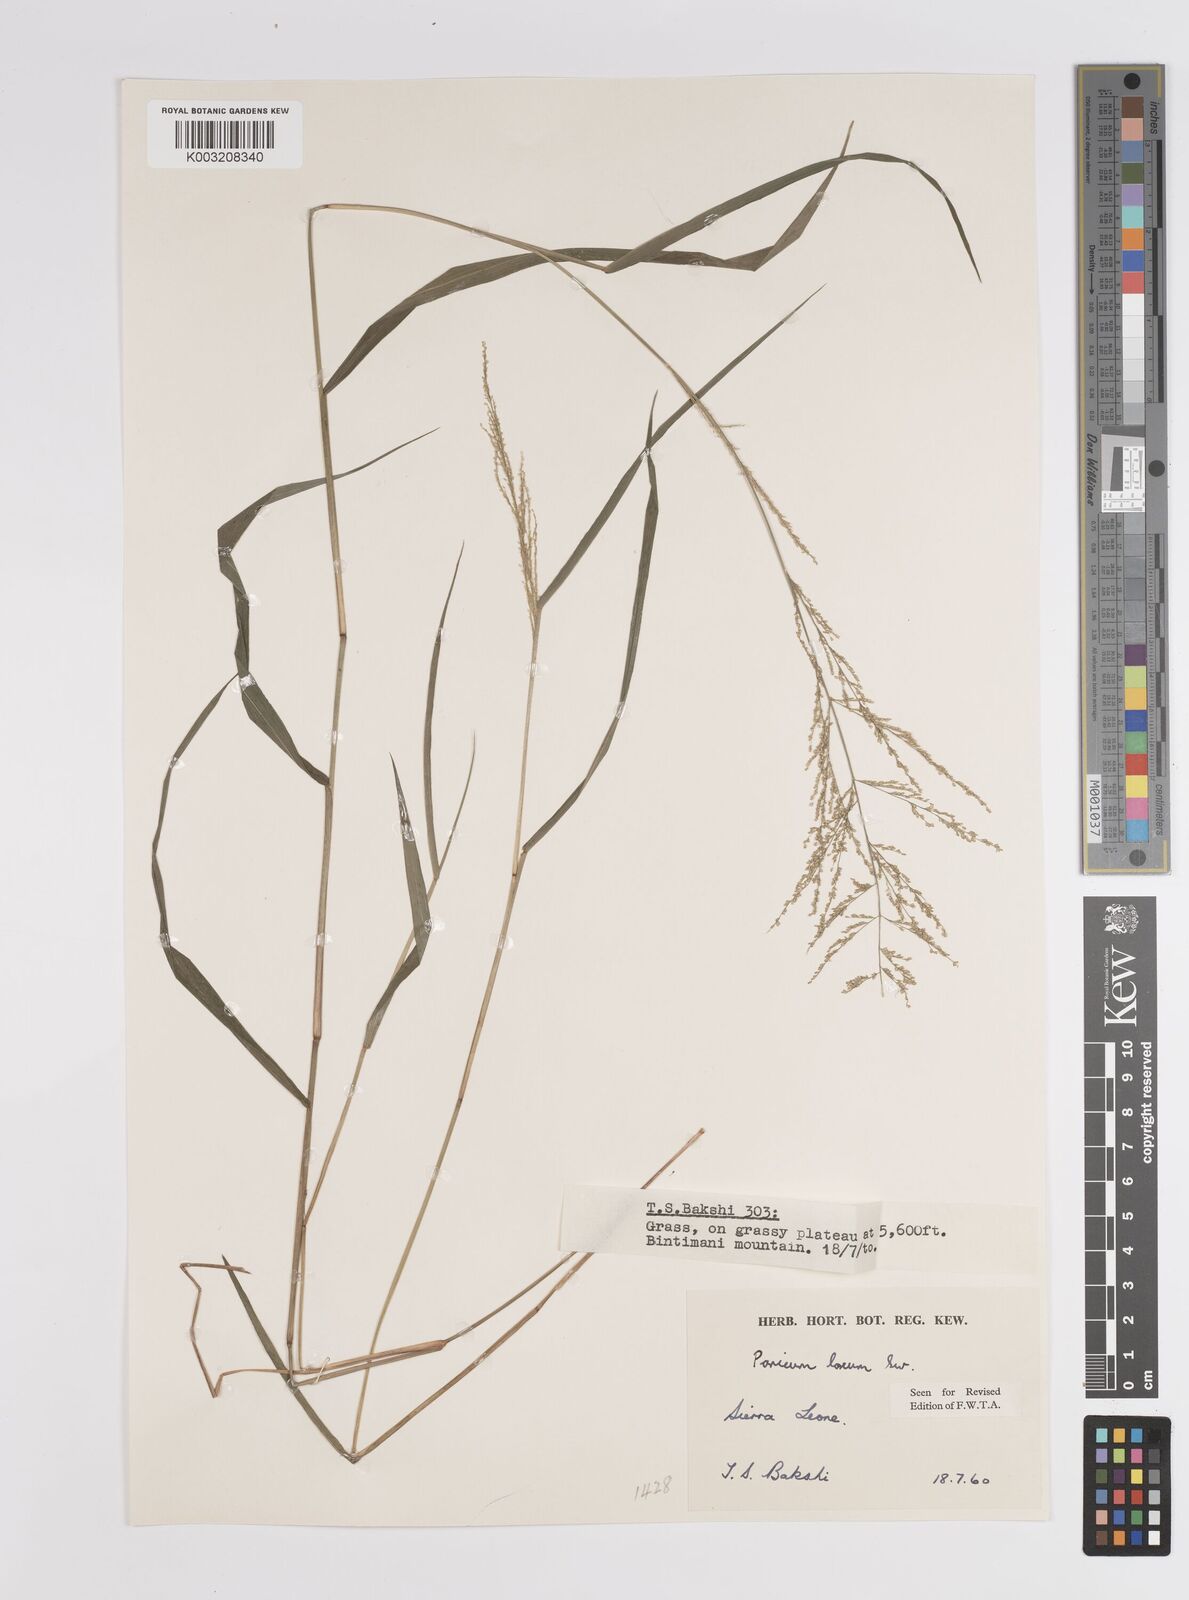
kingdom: Plantae
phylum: Tracheophyta
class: Liliopsida
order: Poales
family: Poaceae
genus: Steinchisma
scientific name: Steinchisma laxum
